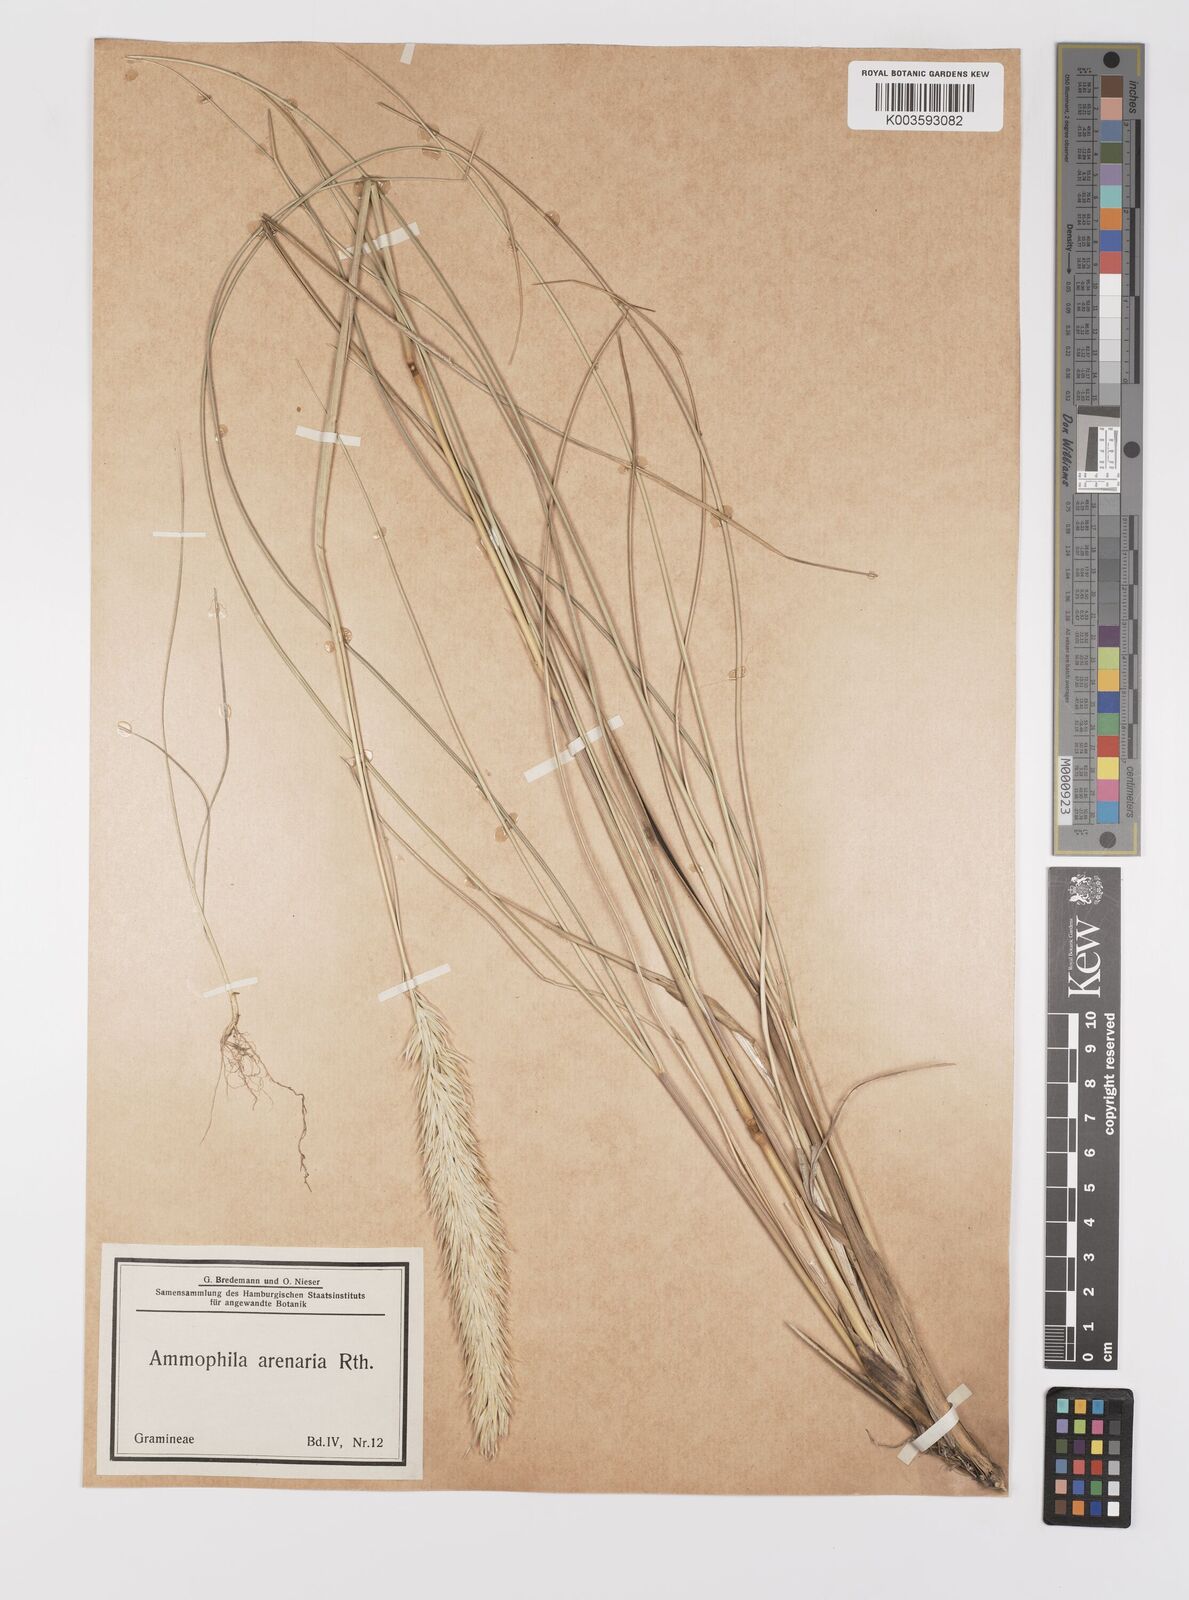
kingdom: Animalia
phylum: Arthropoda
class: Insecta
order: Hymenoptera
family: Sphecidae
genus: Ammophila
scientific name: Ammophila
